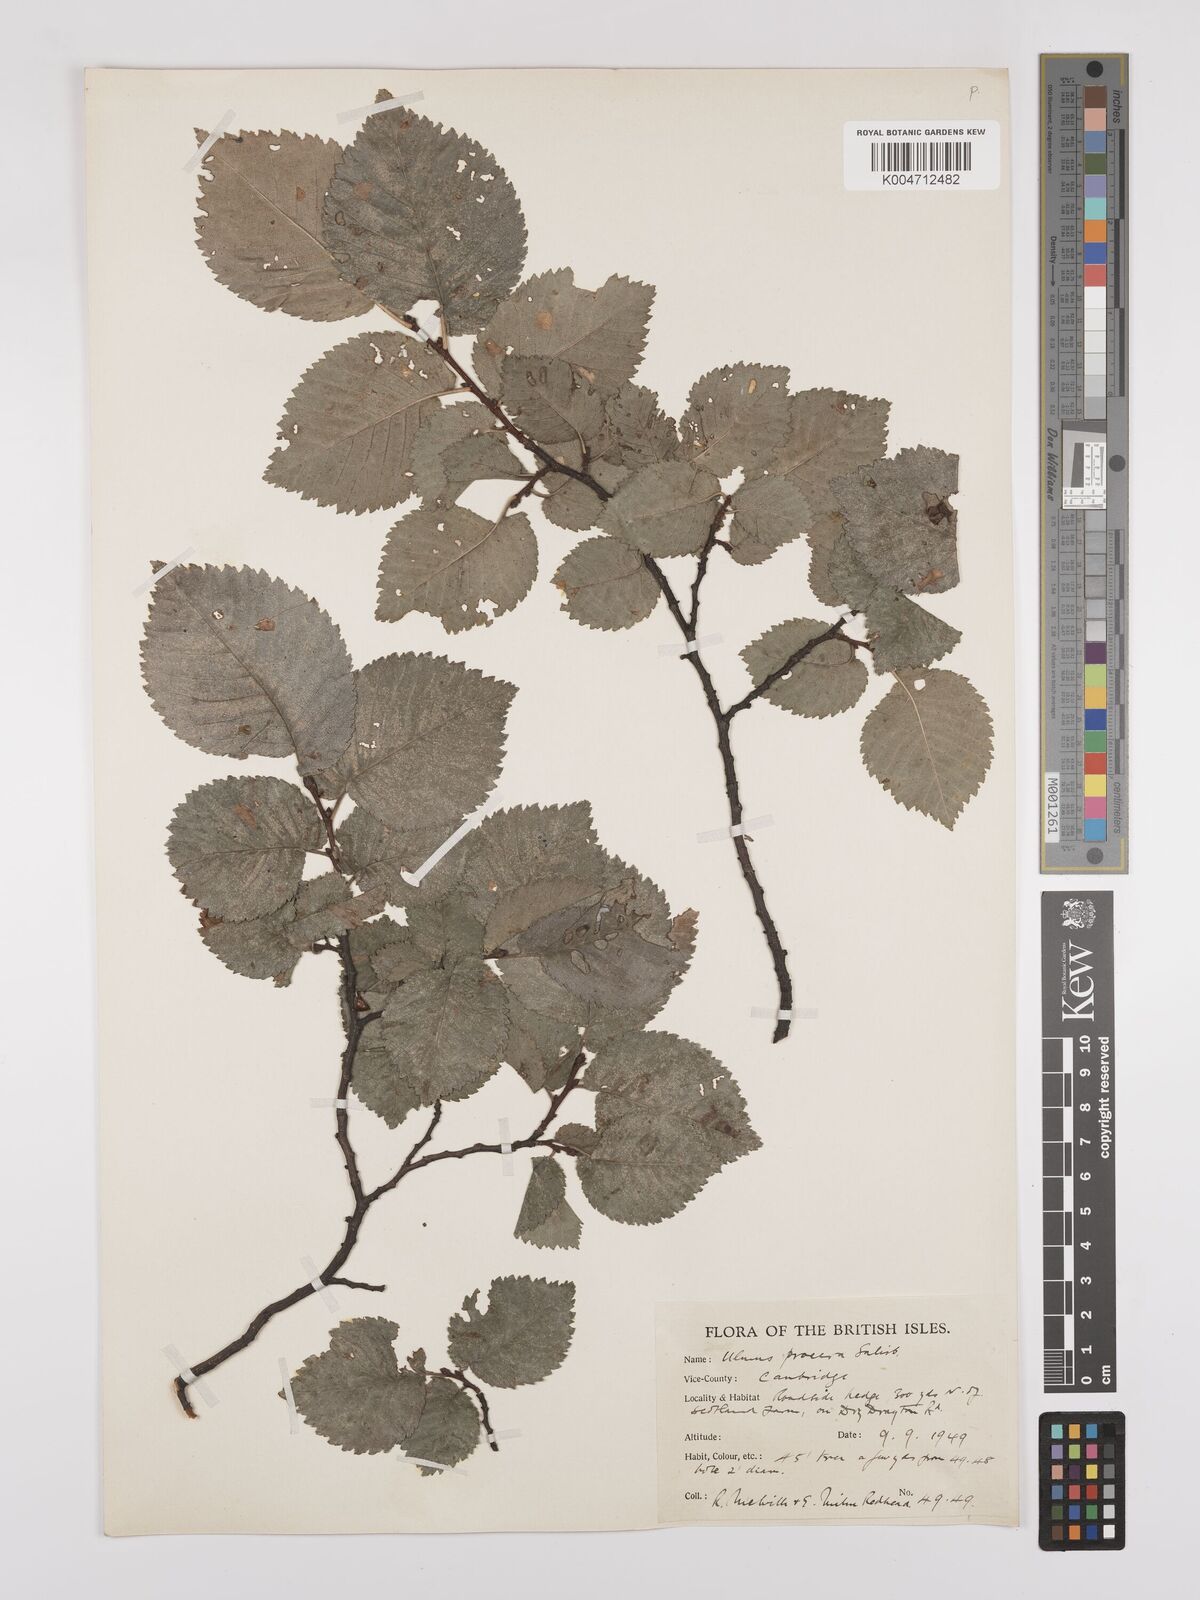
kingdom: Plantae
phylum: Tracheophyta
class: Magnoliopsida
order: Rosales
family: Ulmaceae
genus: Ulmus
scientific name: Ulmus minor
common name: Small-leaved elm
